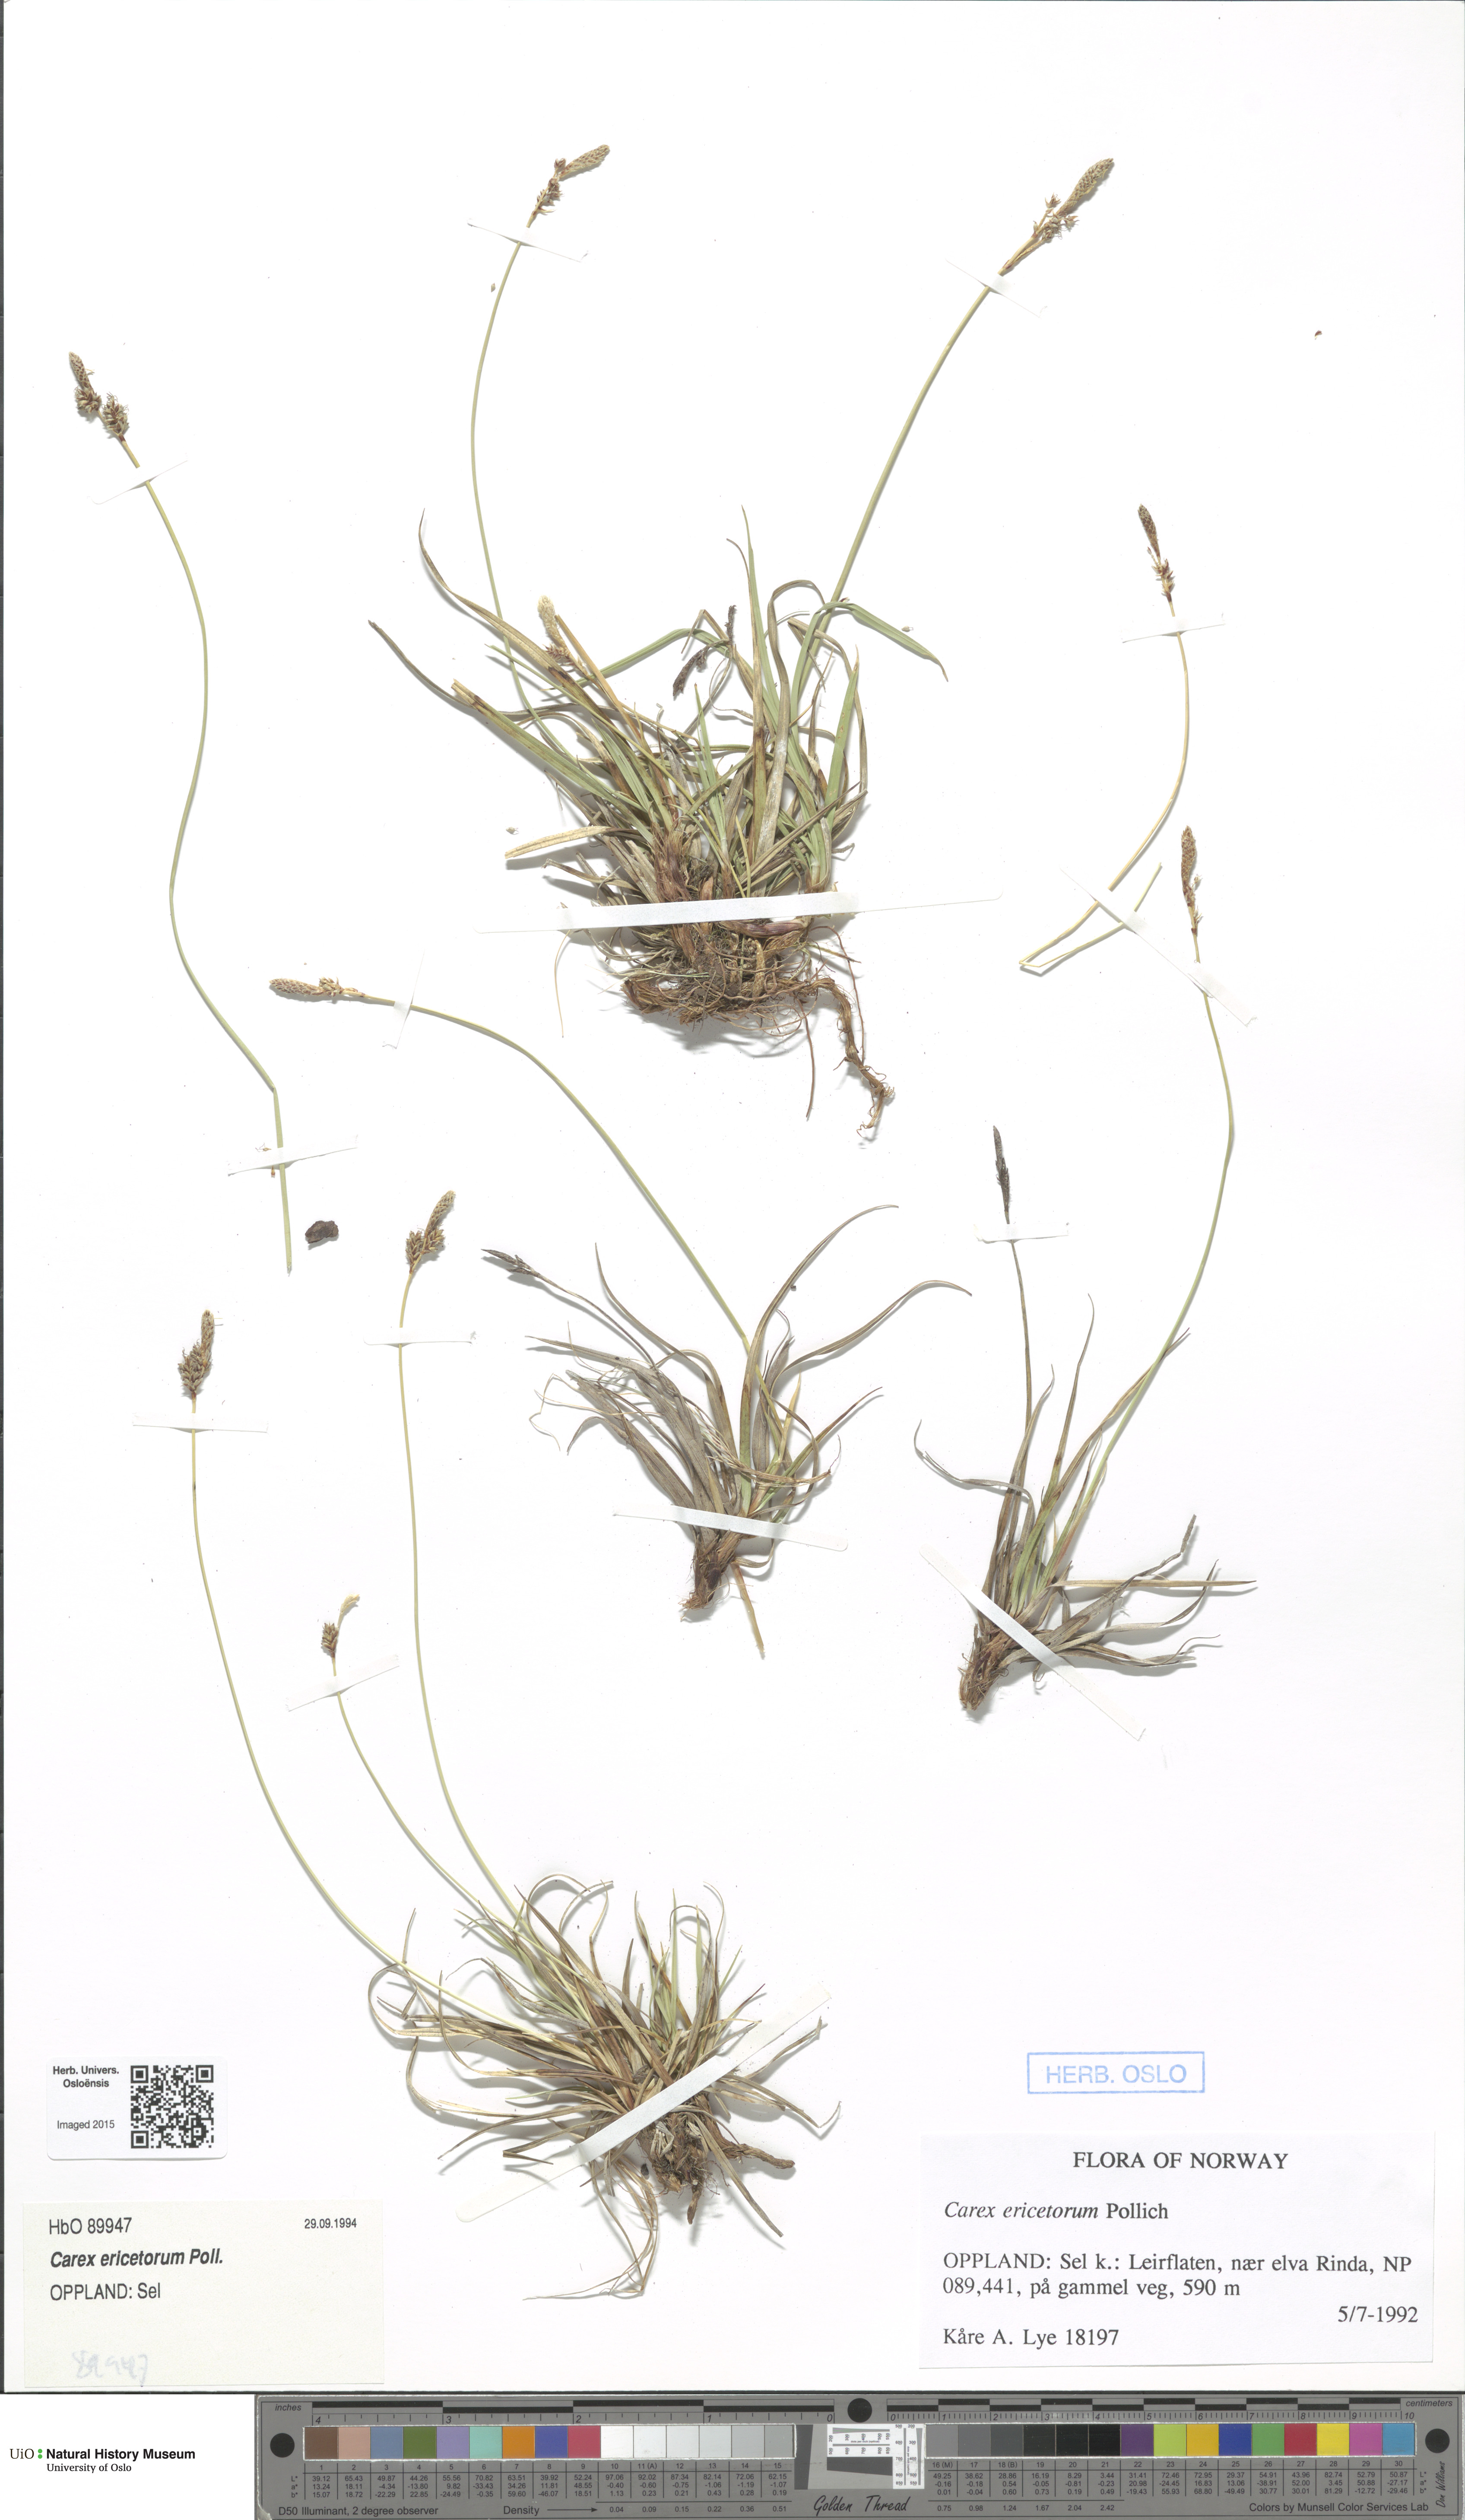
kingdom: Plantae
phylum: Tracheophyta
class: Liliopsida
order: Poales
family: Cyperaceae
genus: Carex
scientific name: Carex ericetorum
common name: Rare spring-sedge
